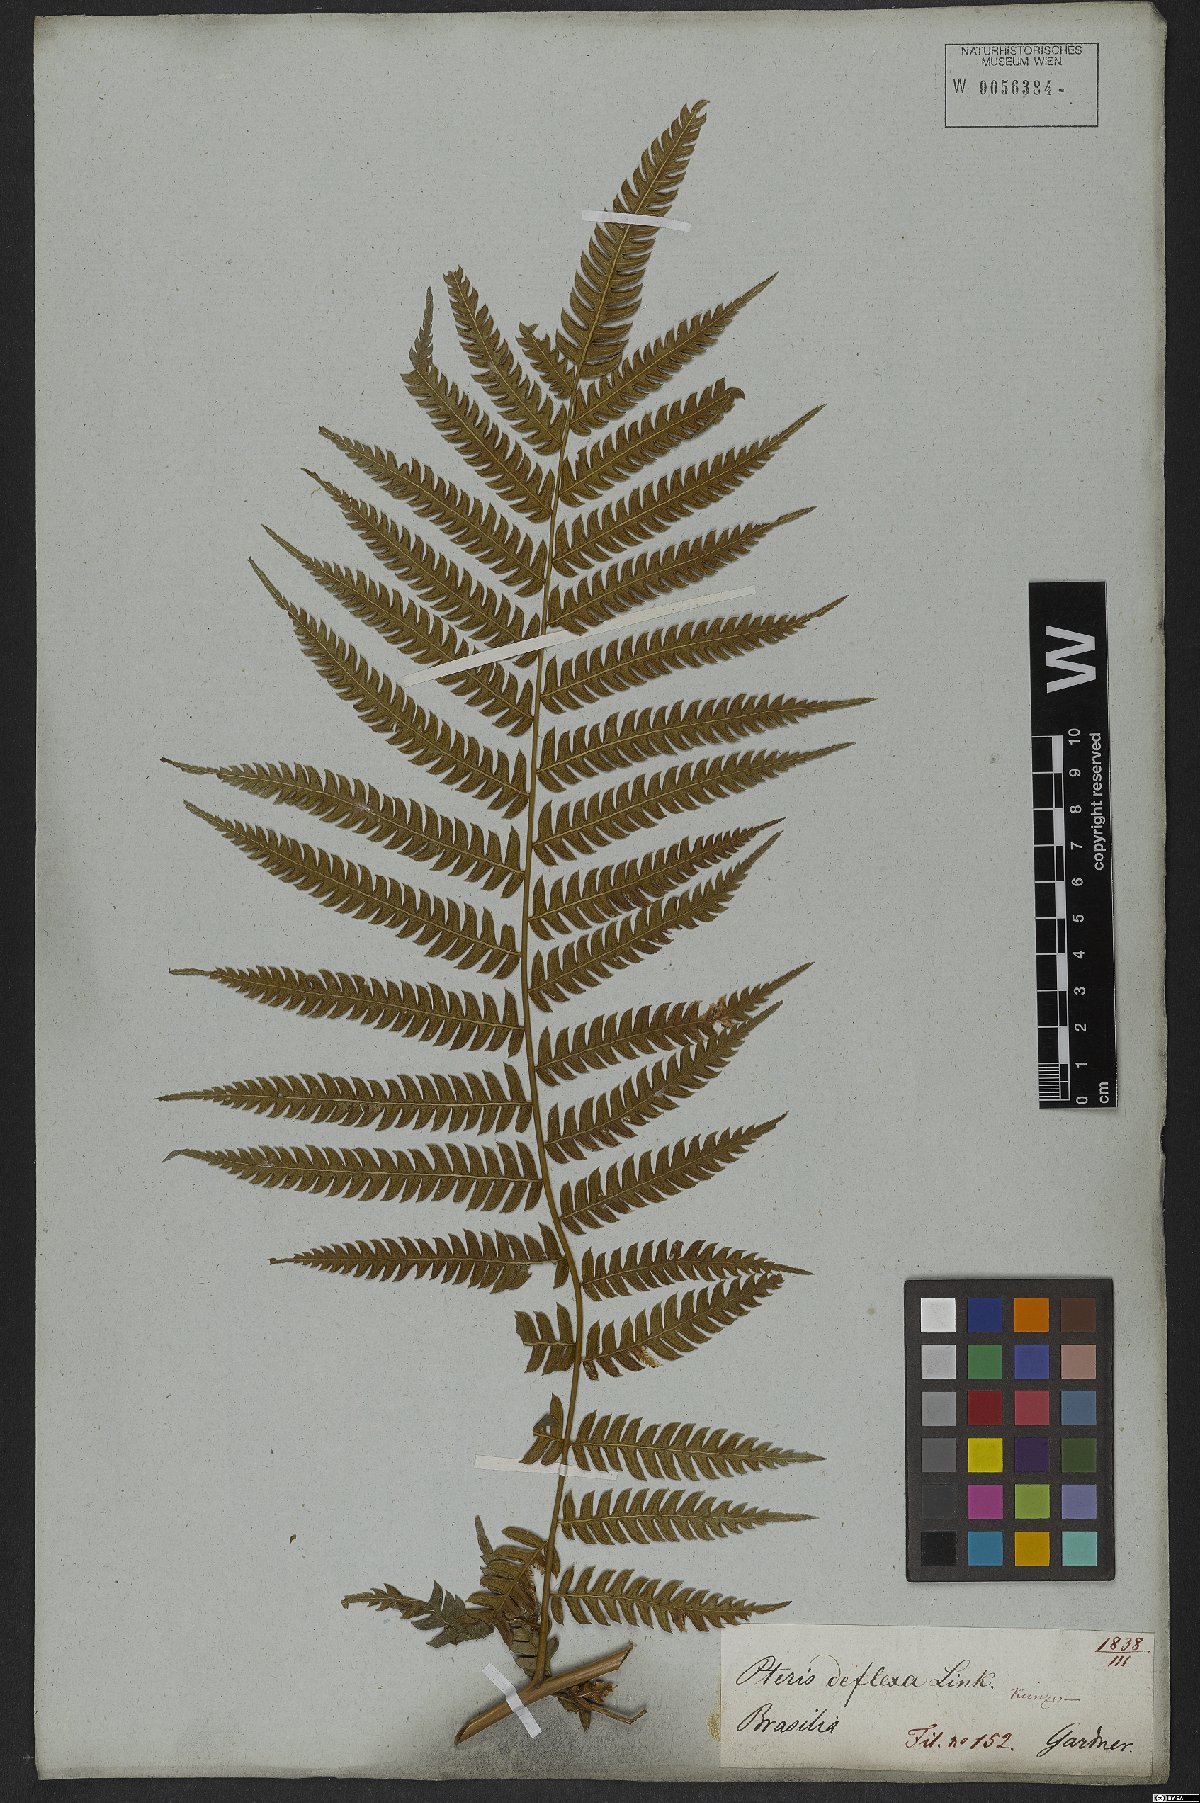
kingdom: Plantae
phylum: Tracheophyta
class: Polypodiopsida
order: Polypodiales
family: Pteridaceae
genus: Pteris
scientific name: Pteris deflexa
